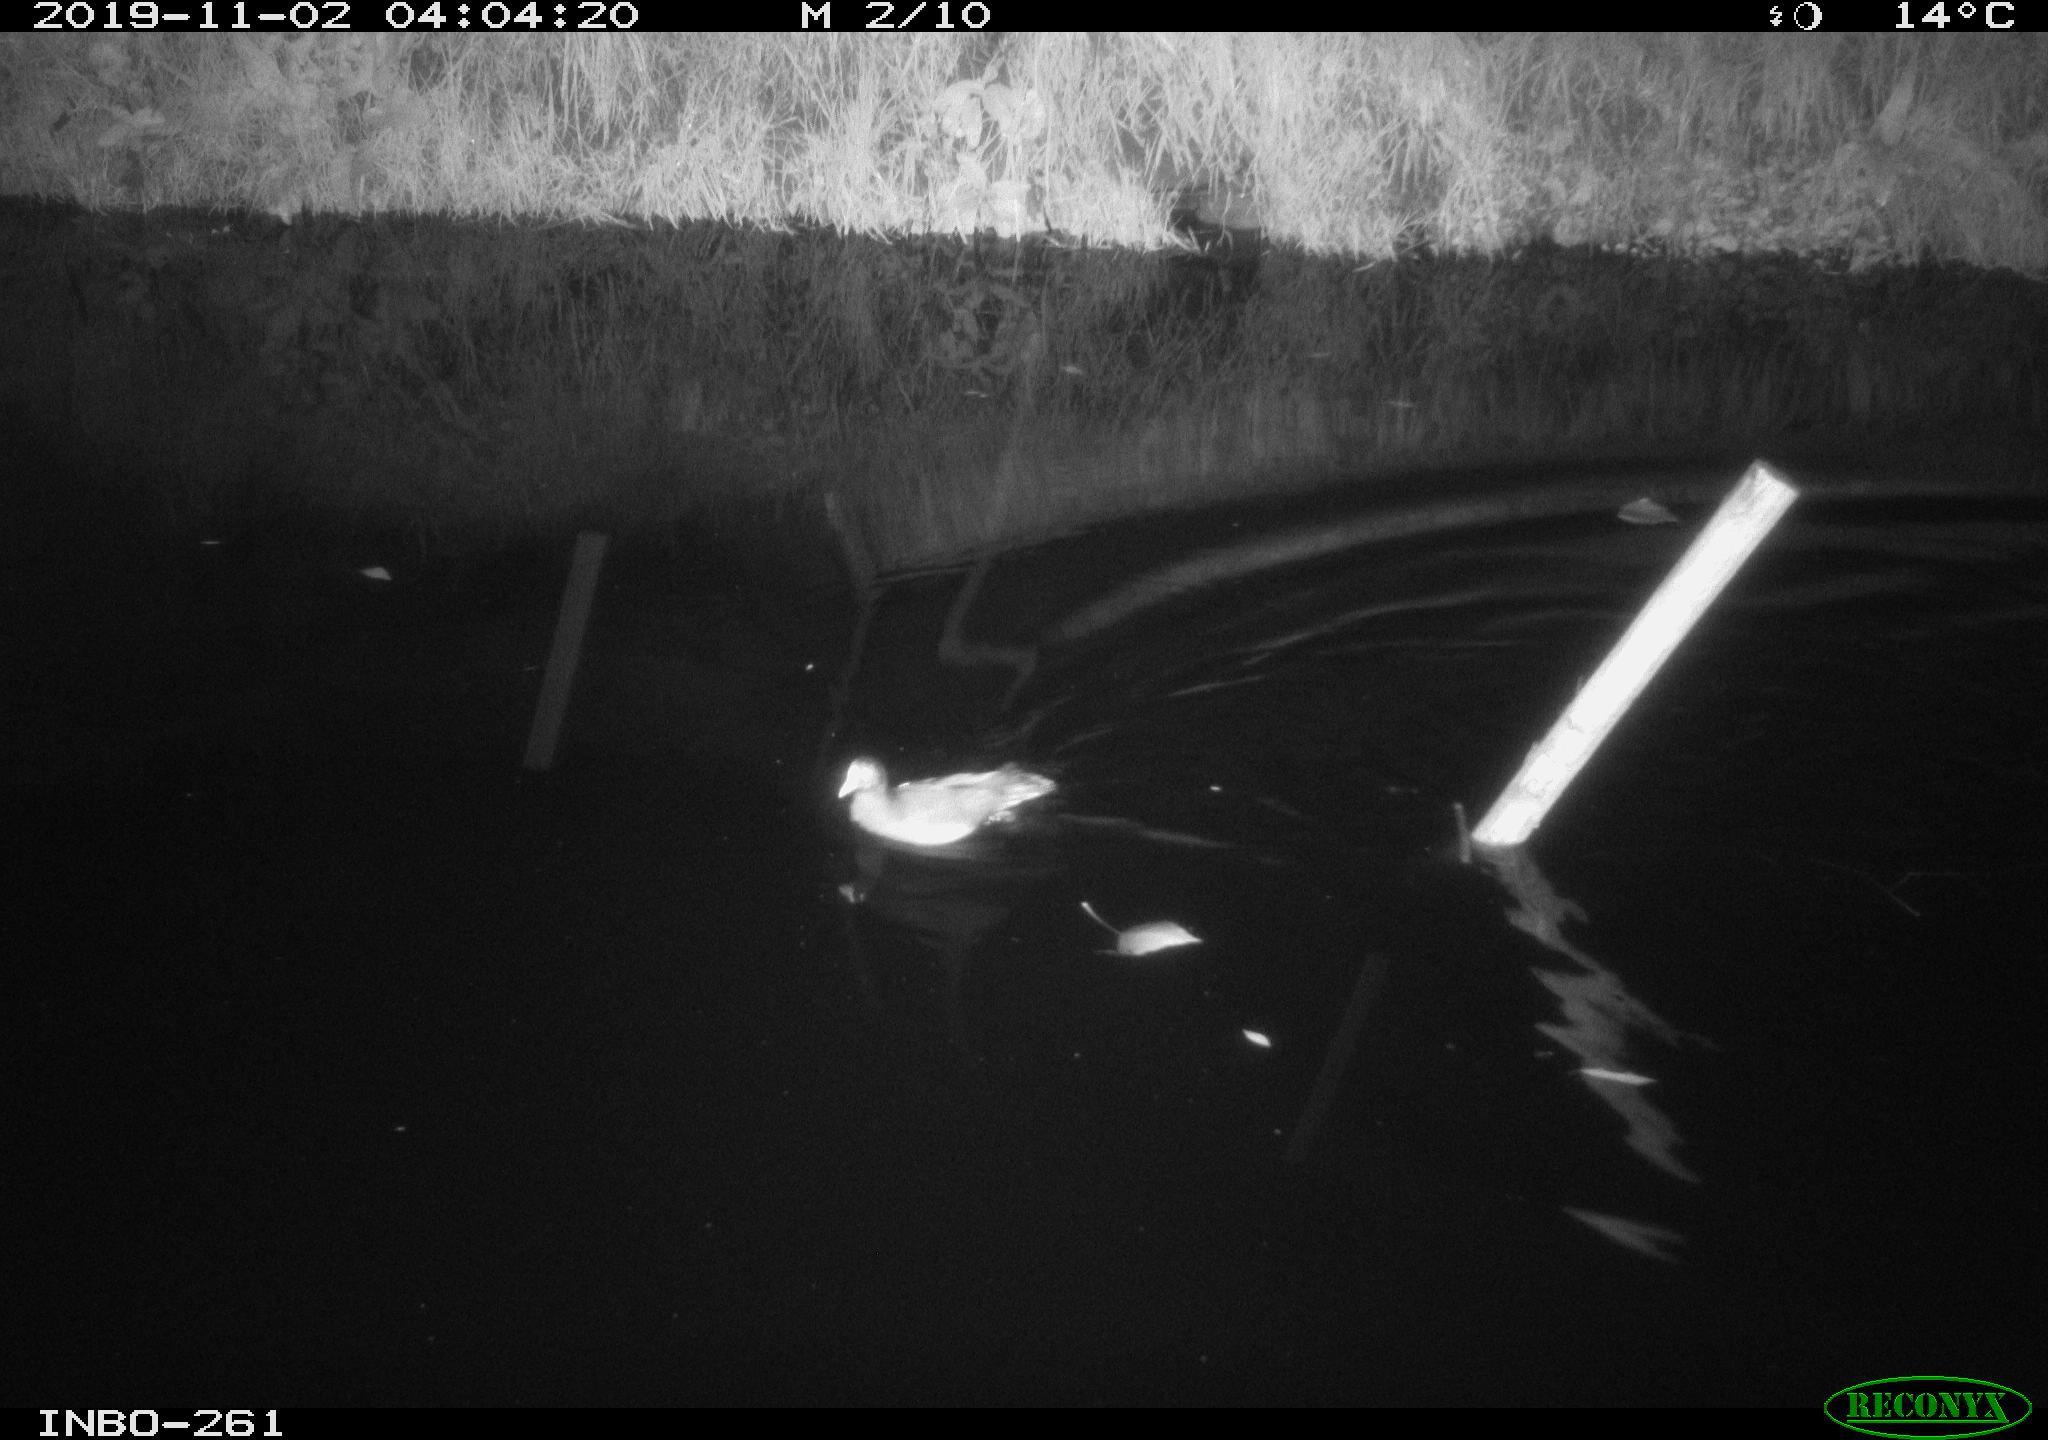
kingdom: Animalia
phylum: Chordata
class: Aves
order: Gruiformes
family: Rallidae
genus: Gallinula
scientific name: Gallinula chloropus
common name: Common moorhen
